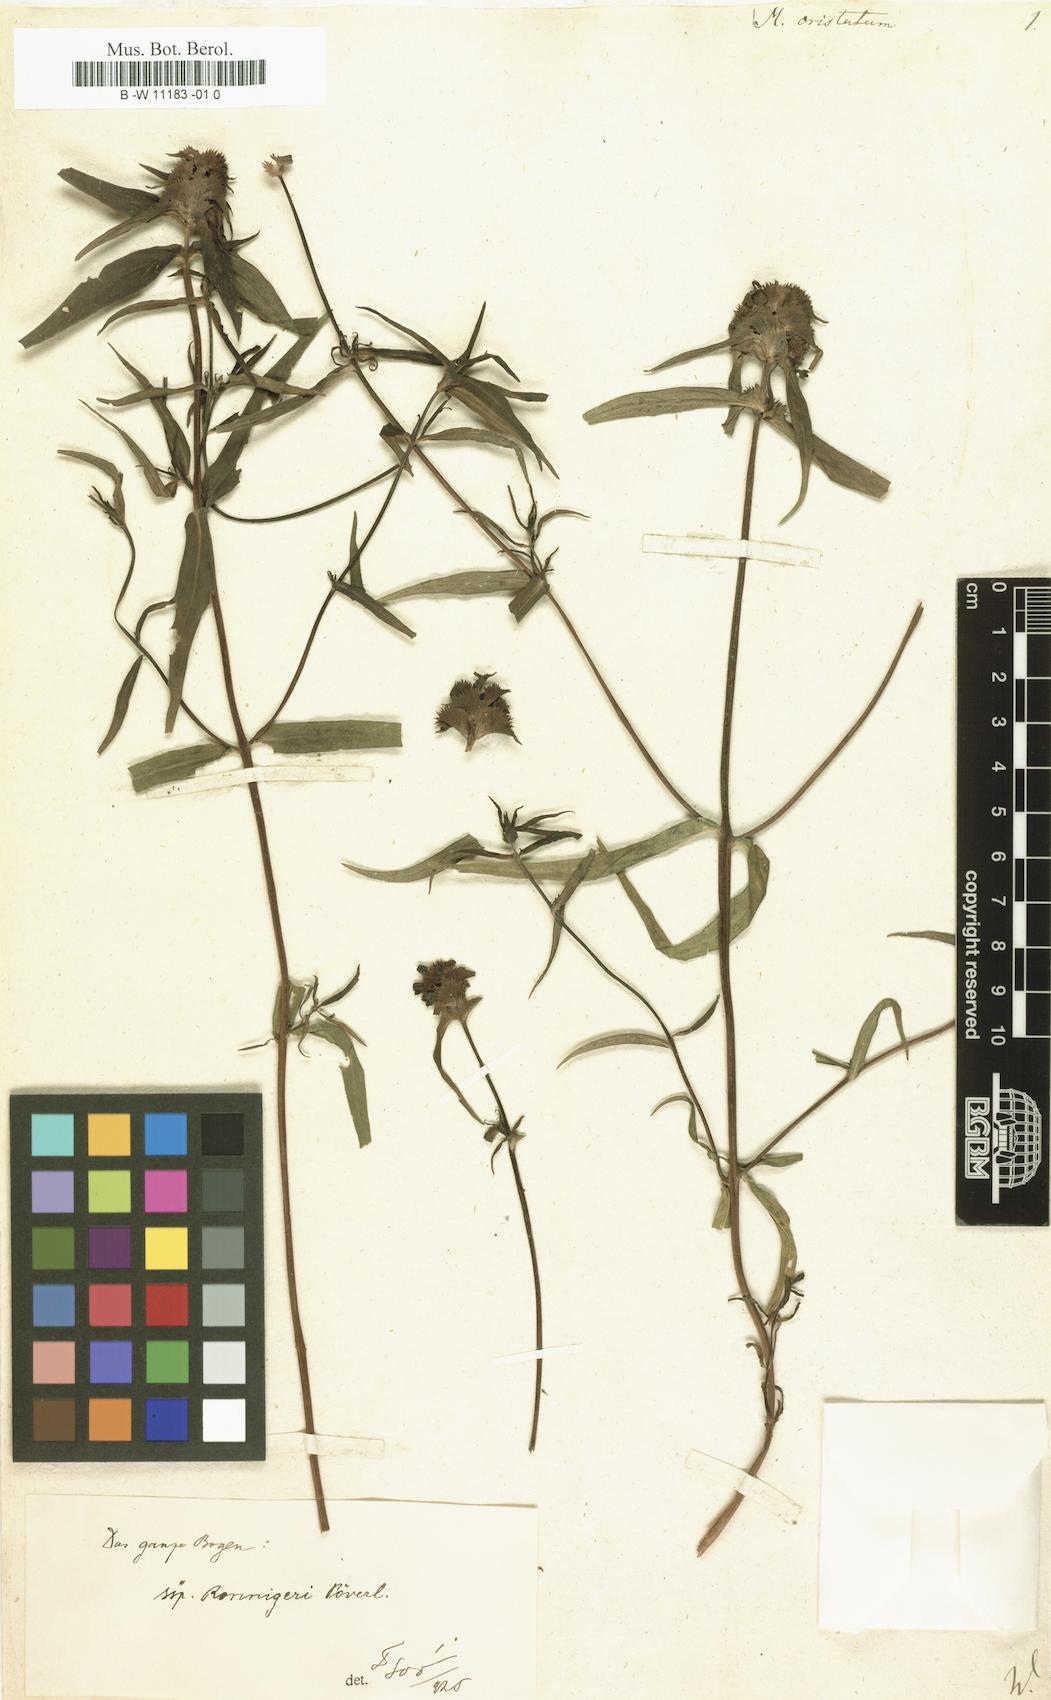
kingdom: Plantae
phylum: Tracheophyta
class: Magnoliopsida
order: Lamiales
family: Orobanchaceae
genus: Melampyrum
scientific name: Melampyrum cristatum
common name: Crested cow-wheat
